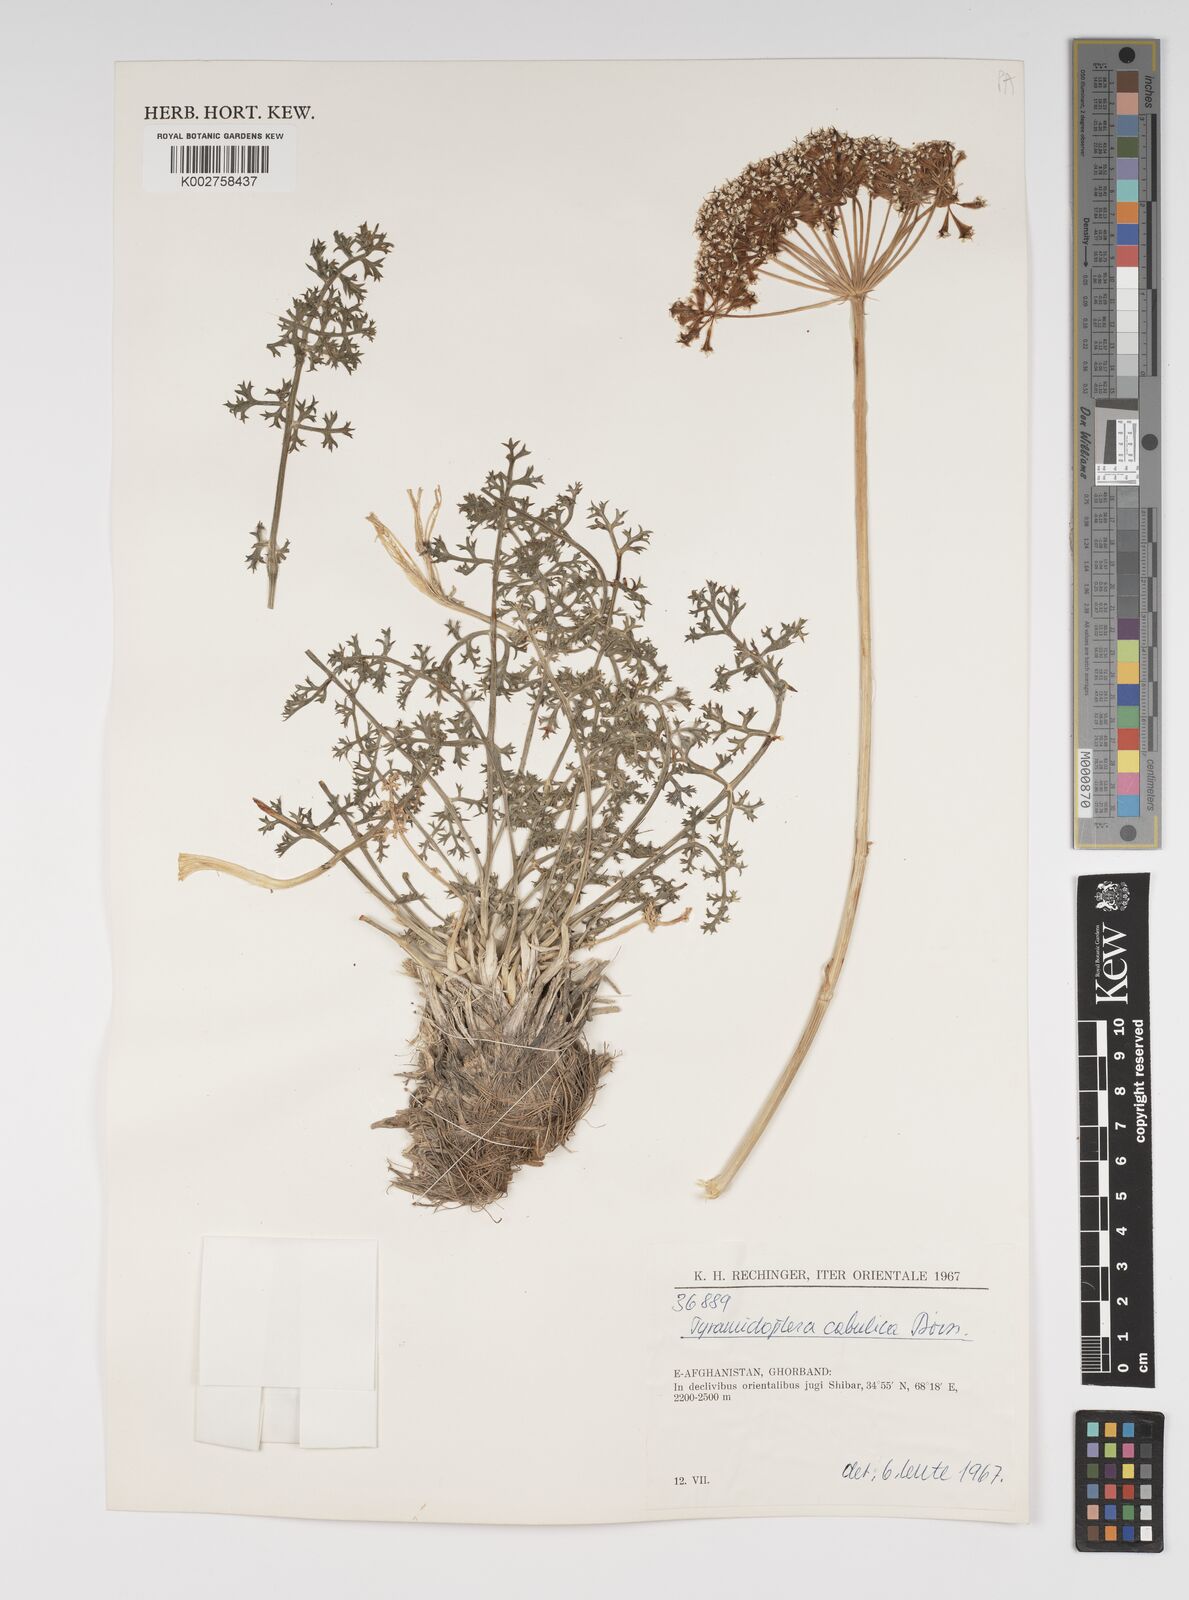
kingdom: Plantae
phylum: Tracheophyta
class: Magnoliopsida
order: Apiales
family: Apiaceae
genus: Pyramidoptera
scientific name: Pyramidoptera cabulica
